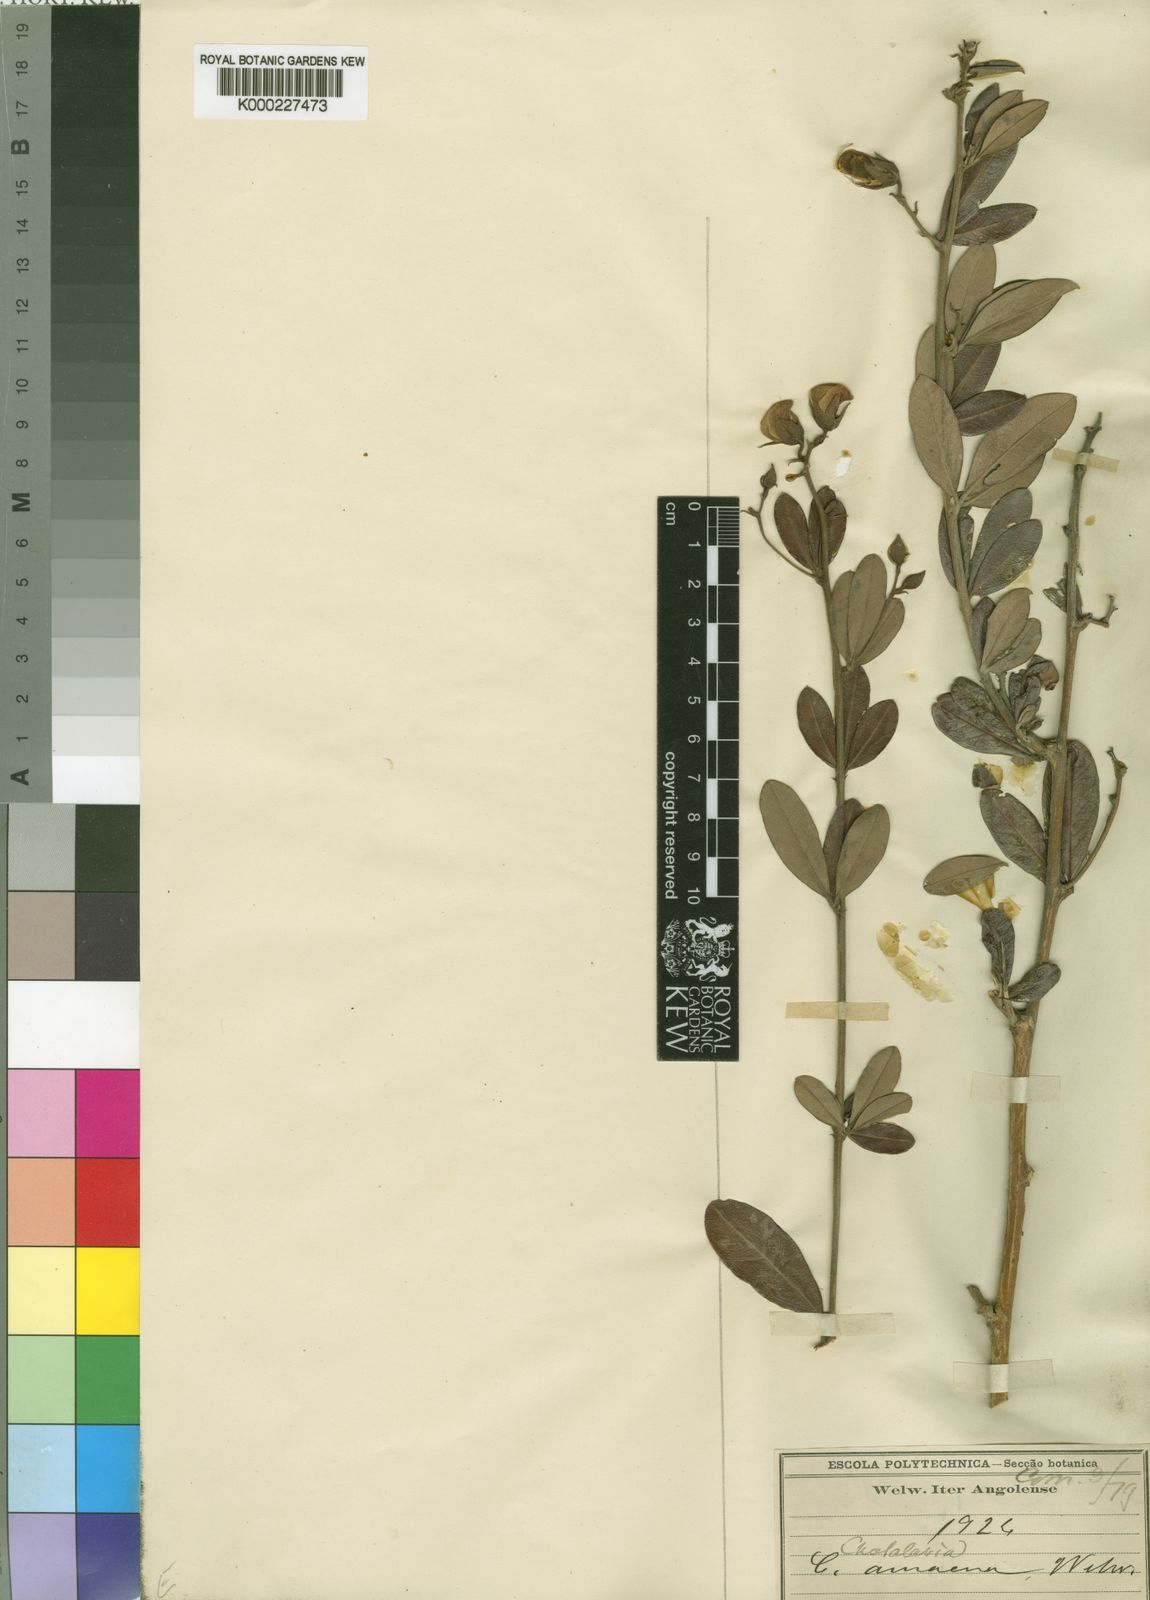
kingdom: Plantae
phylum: Tracheophyta
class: Magnoliopsida
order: Fabales
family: Fabaceae
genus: Crotalaria
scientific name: Crotalaria amoena
